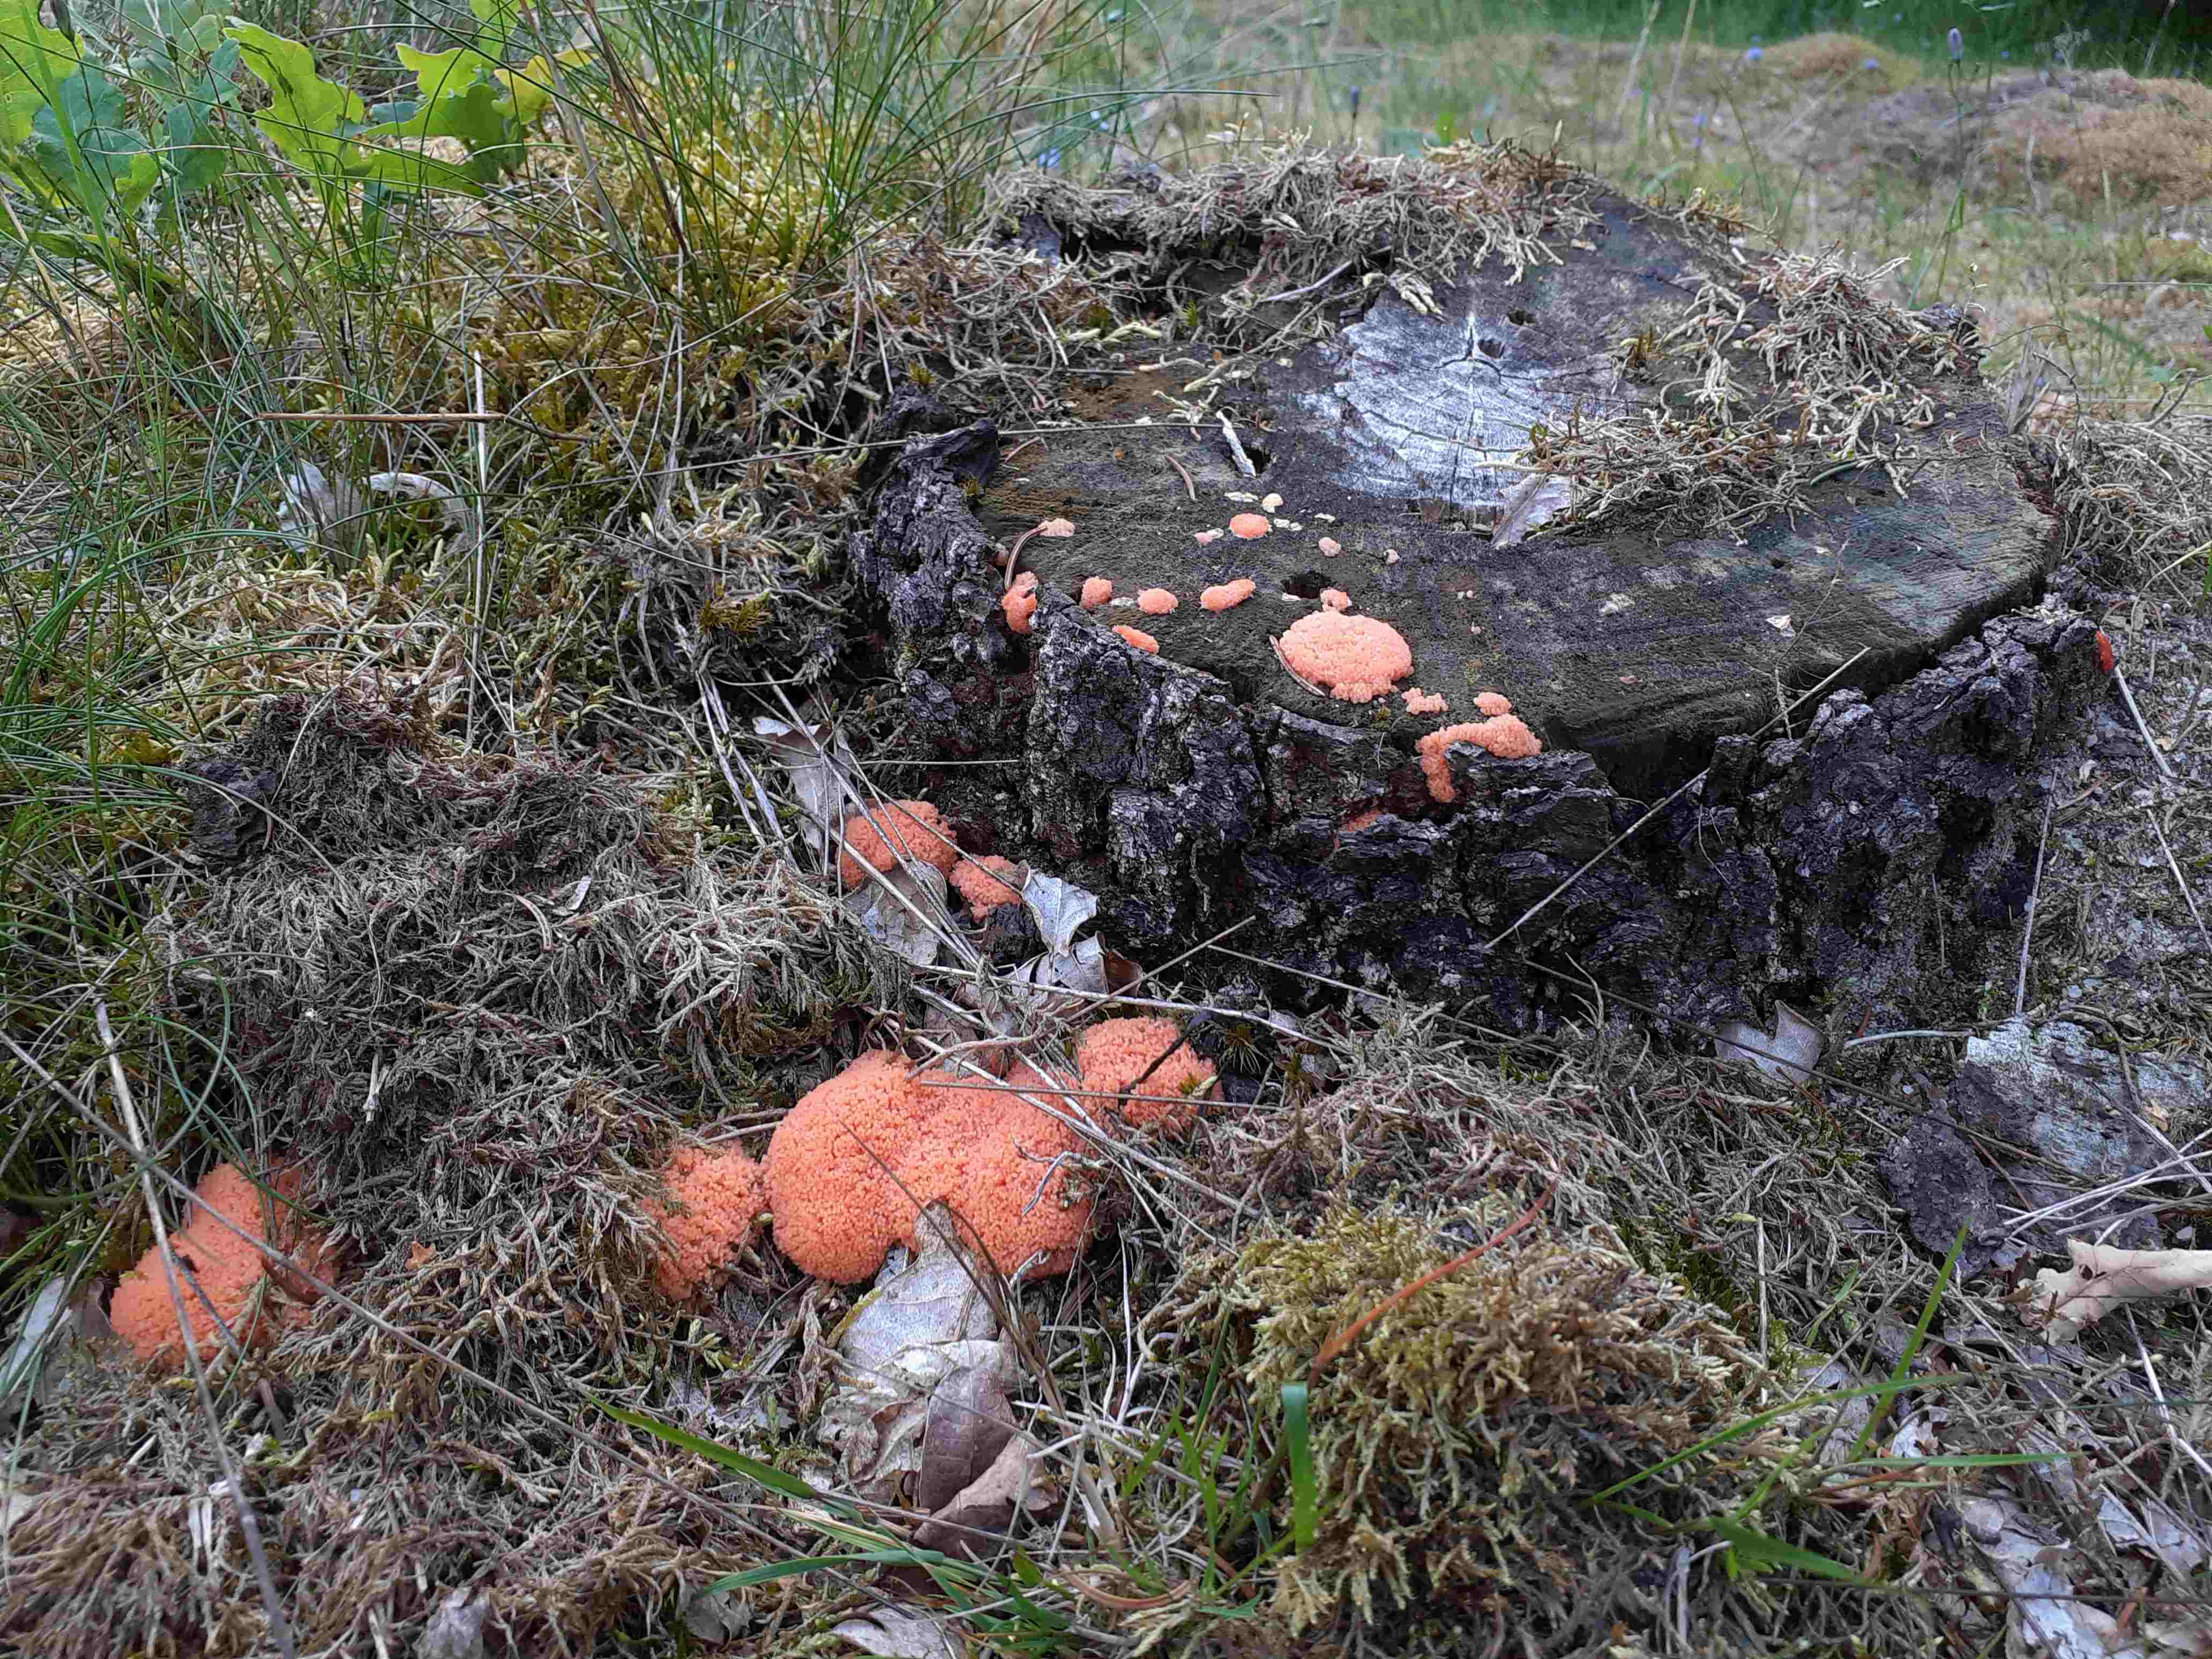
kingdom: Protozoa
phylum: Mycetozoa
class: Myxomycetes
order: Cribrariales
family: Tubiferaceae
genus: Tubifera
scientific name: Tubifera ferruginosa
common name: kanel-støvrør
